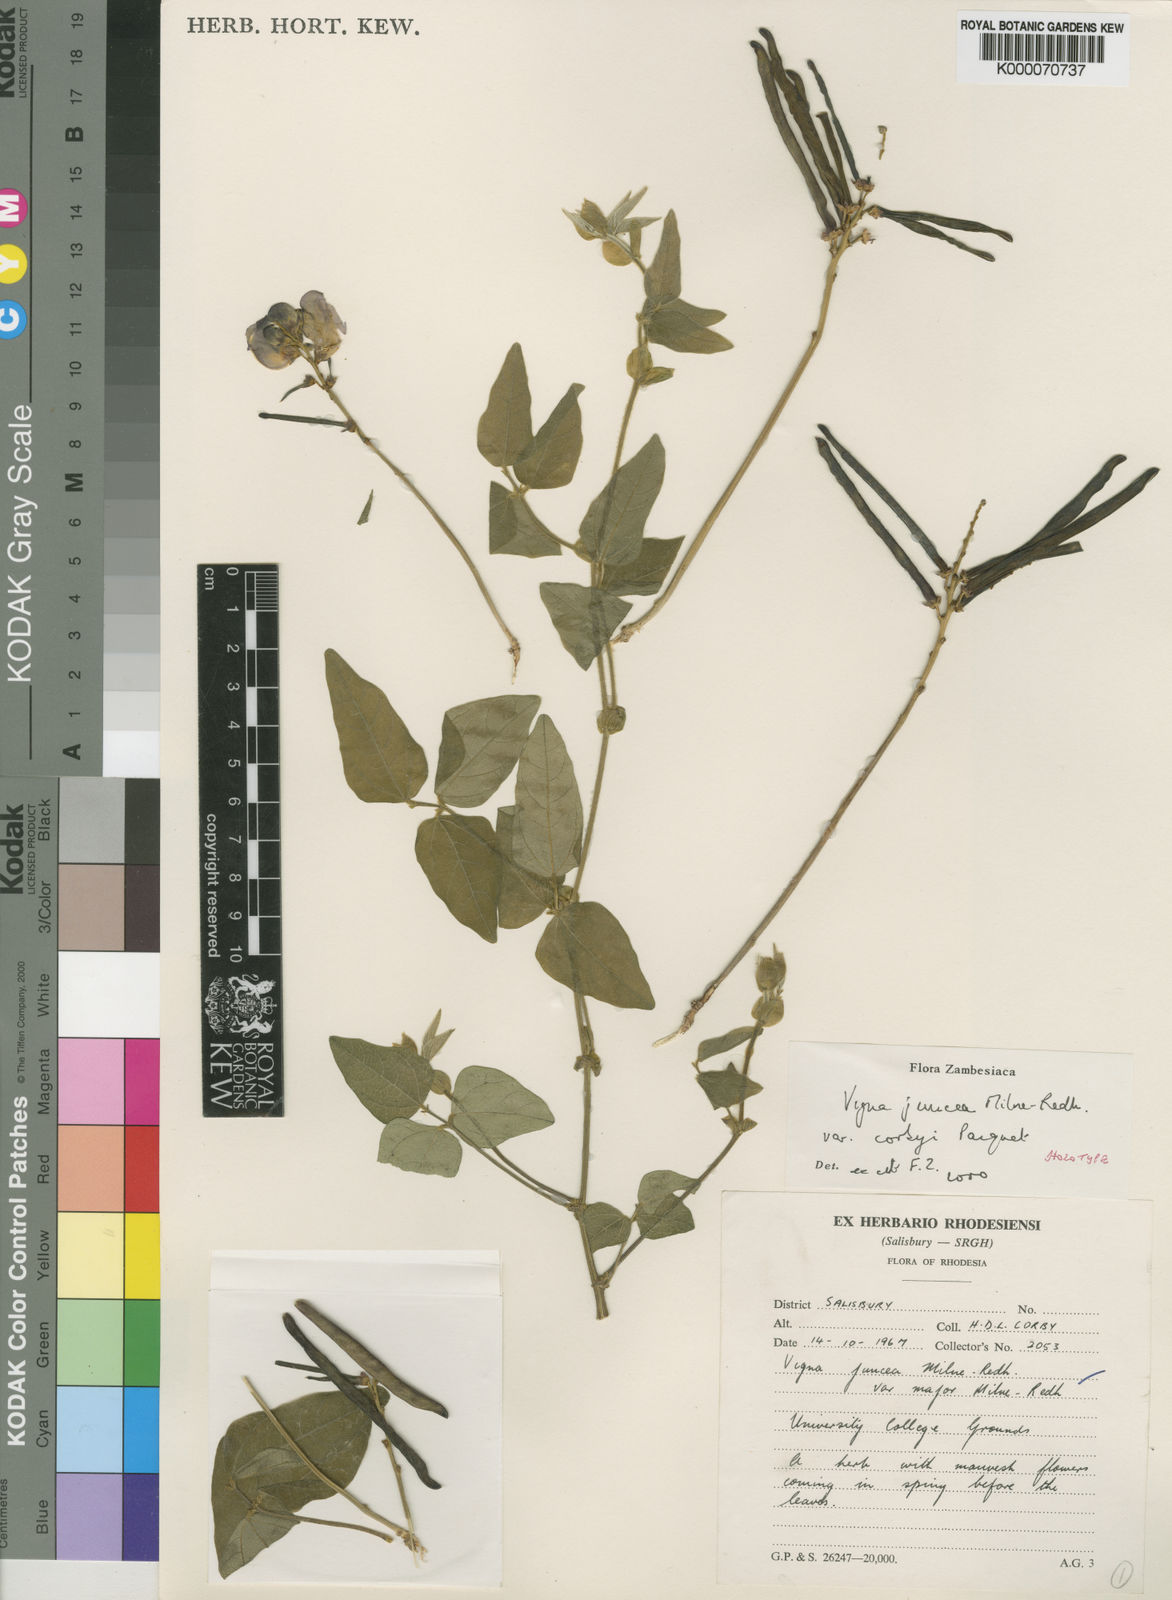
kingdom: Plantae
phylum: Tracheophyta
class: Magnoliopsida
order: Fabales
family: Fabaceae
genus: Vigna
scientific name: Vigna juncea
